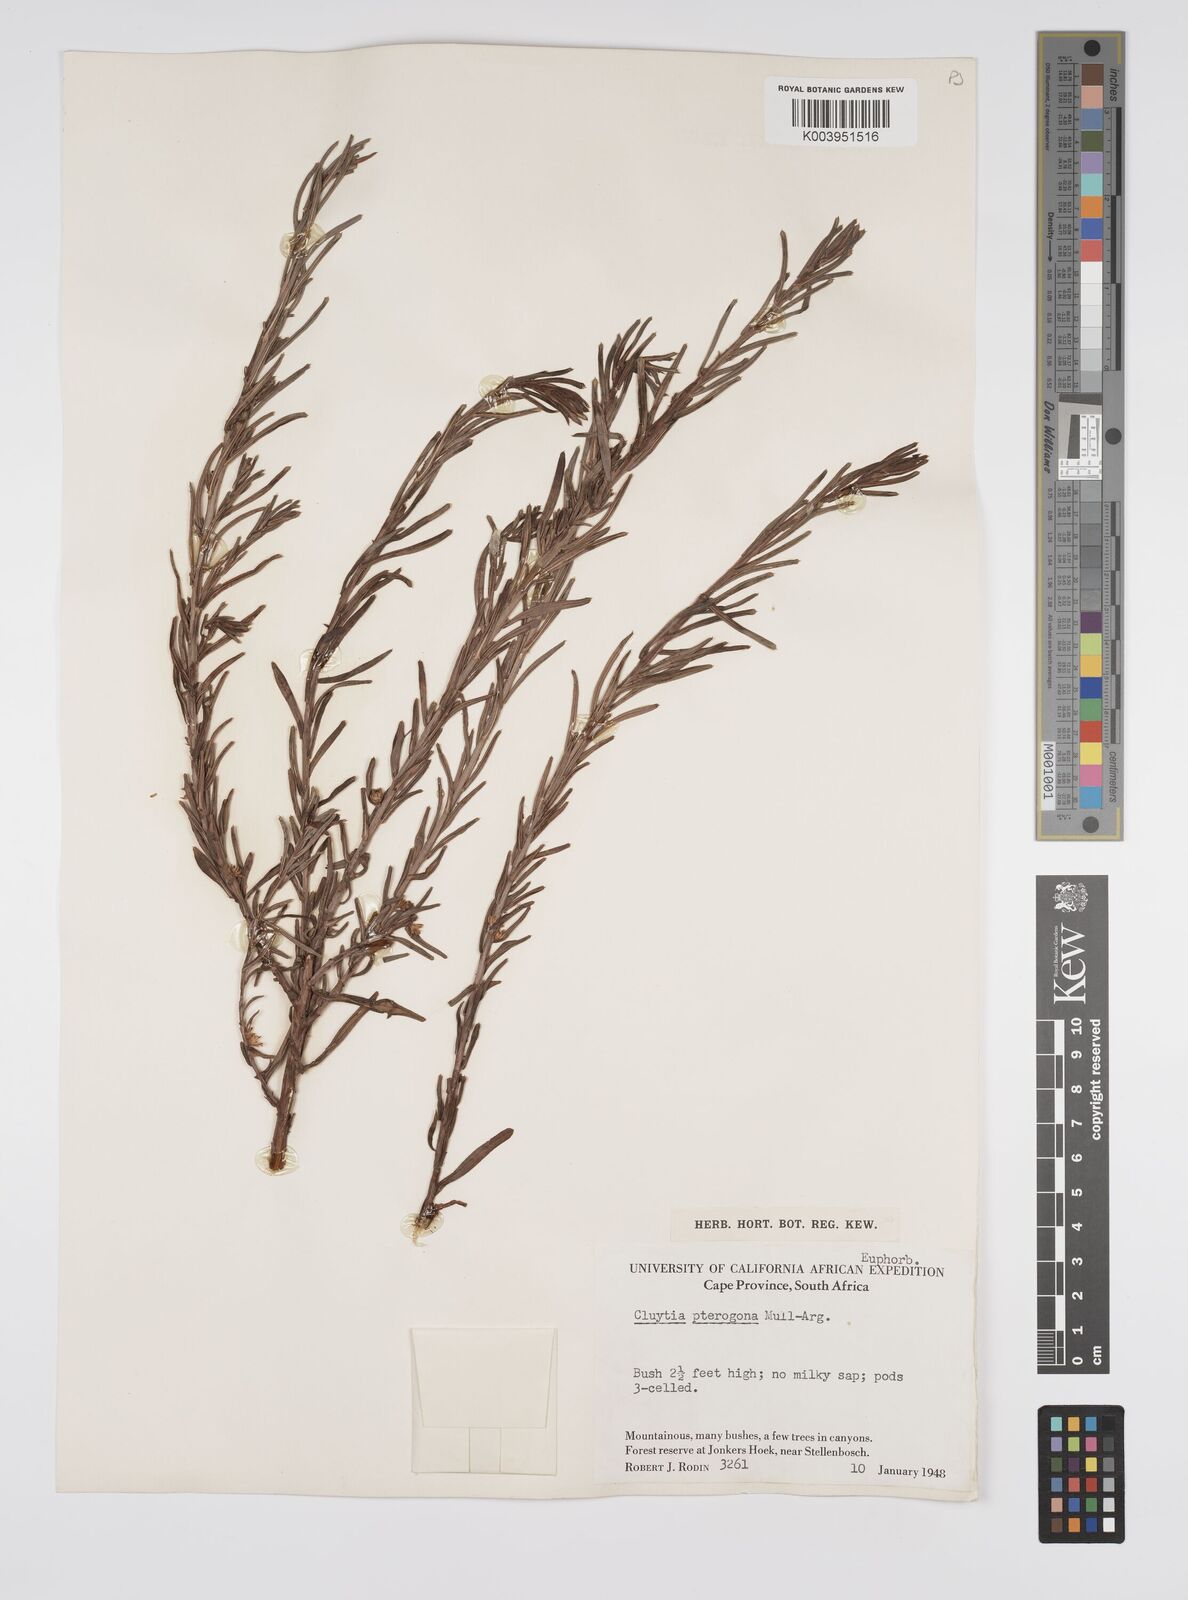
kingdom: Plantae
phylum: Tracheophyta
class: Magnoliopsida
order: Malpighiales
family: Peraceae
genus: Clutia
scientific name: Clutia pterogona
